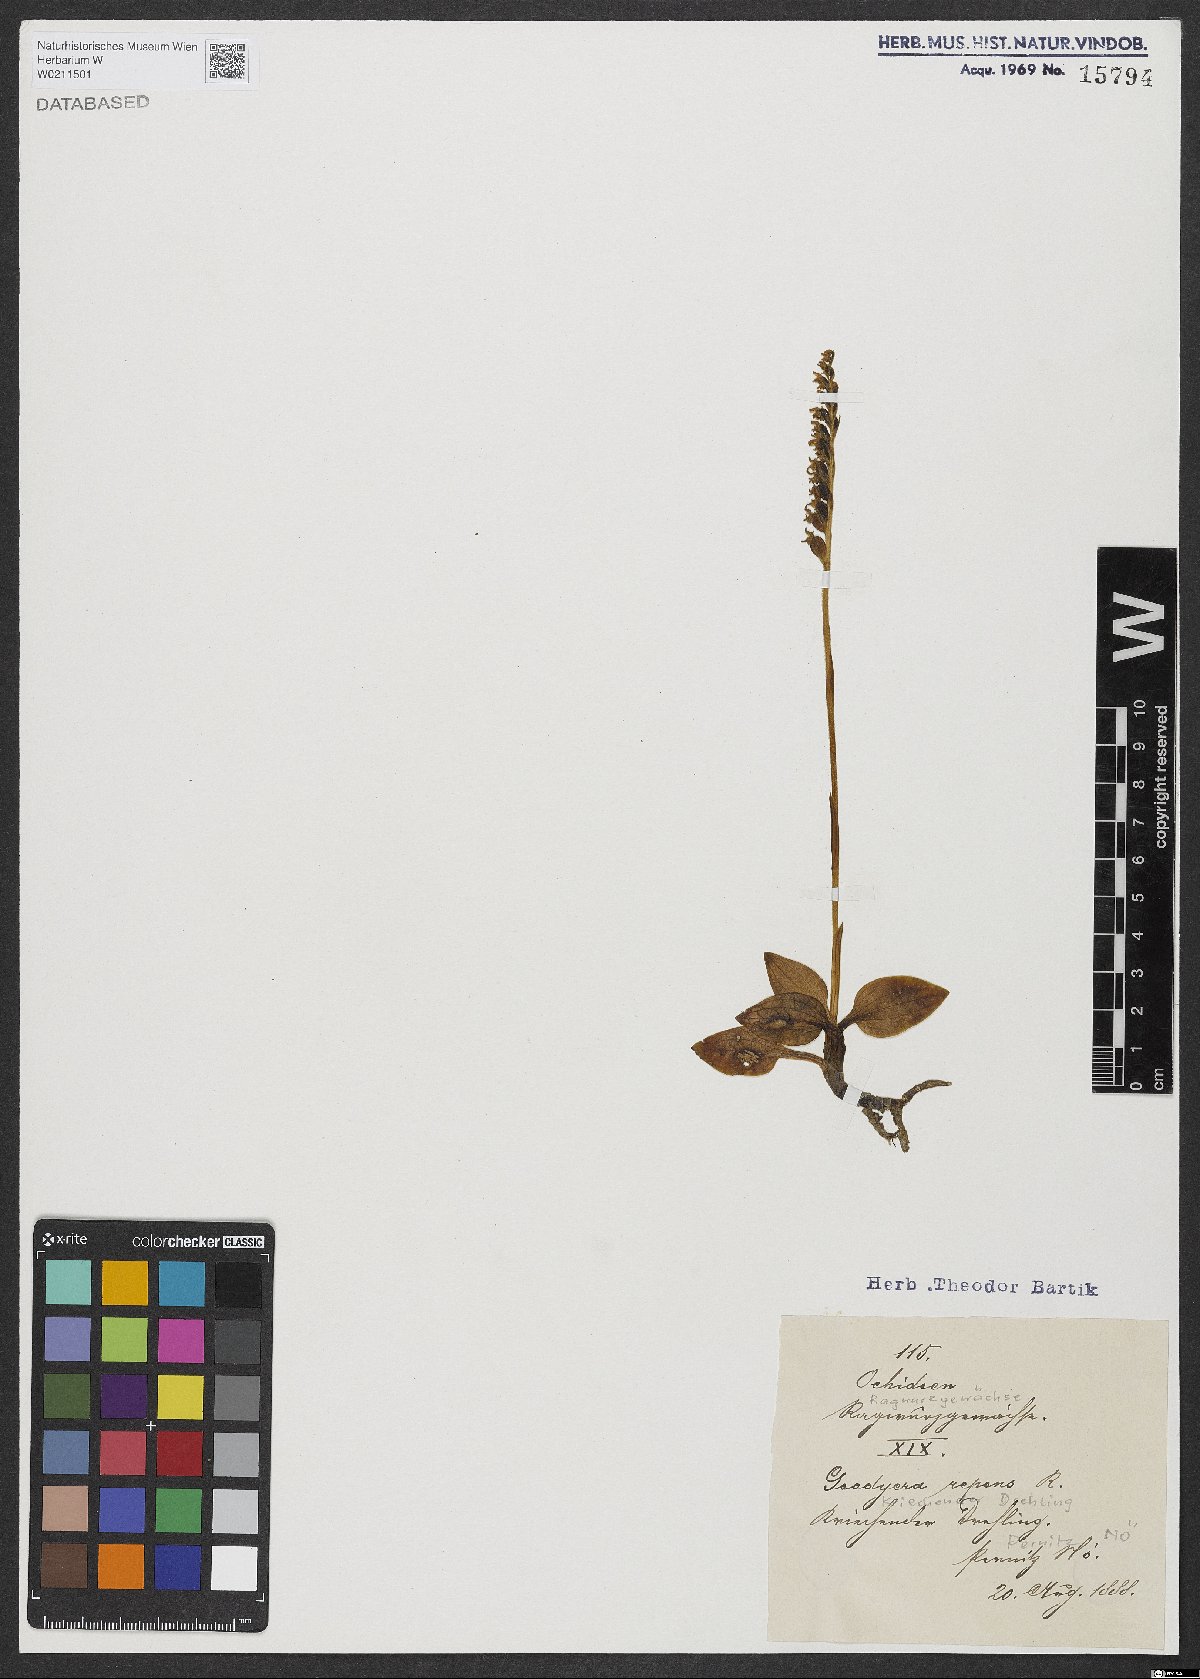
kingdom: Plantae
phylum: Tracheophyta
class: Liliopsida
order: Asparagales
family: Orchidaceae
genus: Goodyera
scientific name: Goodyera repens
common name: Creeping lady's-tresses
